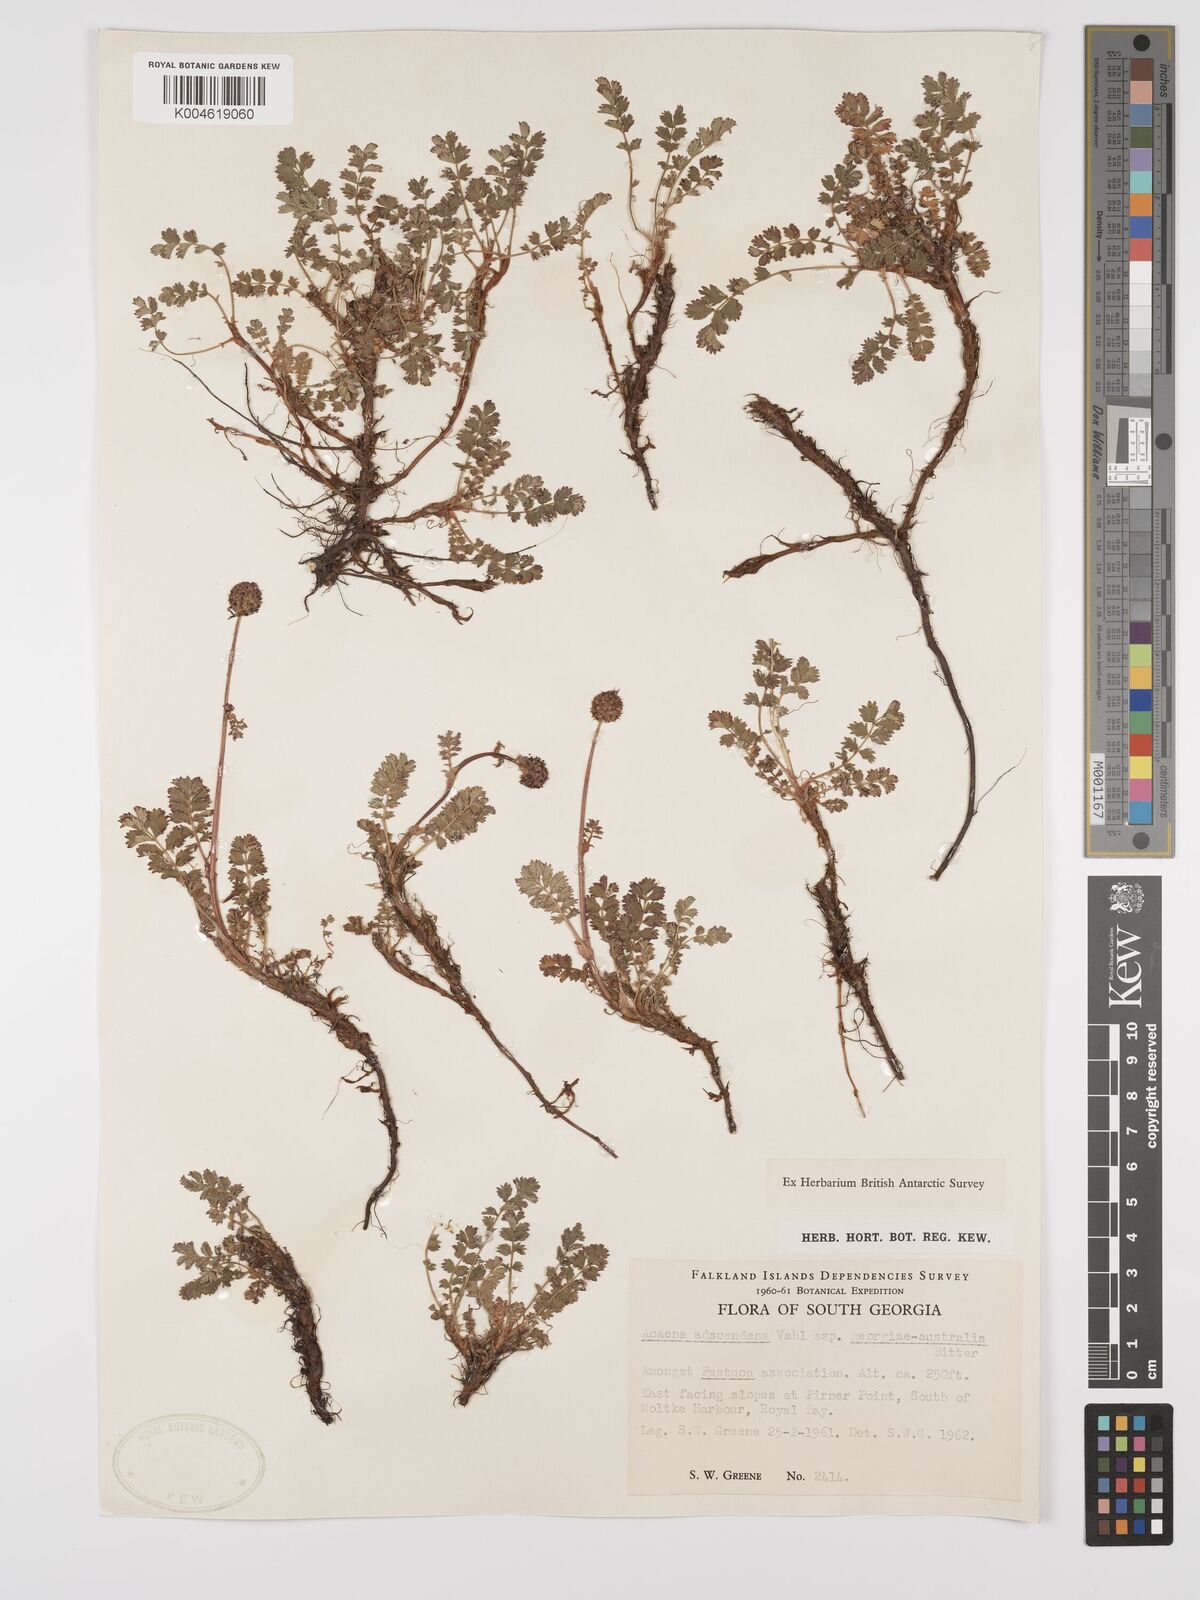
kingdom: Plantae
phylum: Tracheophyta
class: Magnoliopsida
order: Rosales
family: Rosaceae
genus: Acaena
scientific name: Acaena magellanica
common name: New zealand burr
